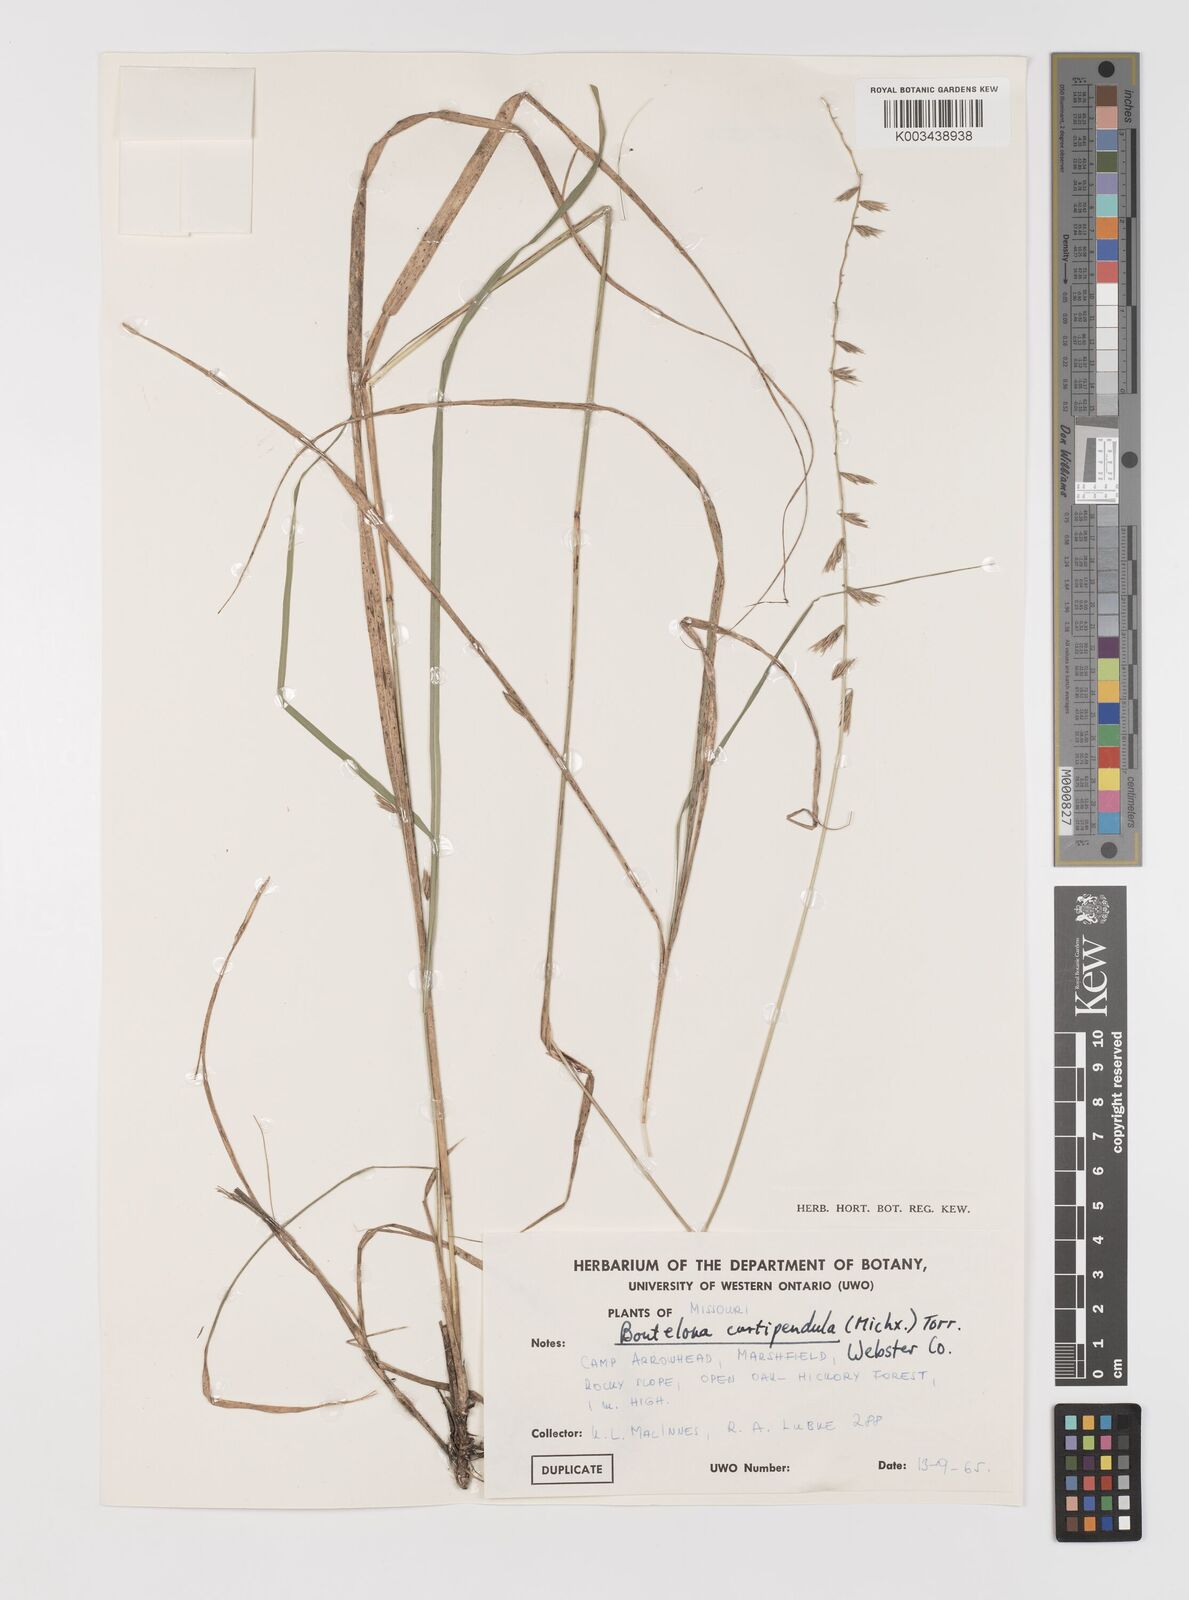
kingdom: Plantae
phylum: Tracheophyta
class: Liliopsida
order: Poales
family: Poaceae
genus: Bouteloua
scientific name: Bouteloua curtipendula
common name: Side-oats grama
